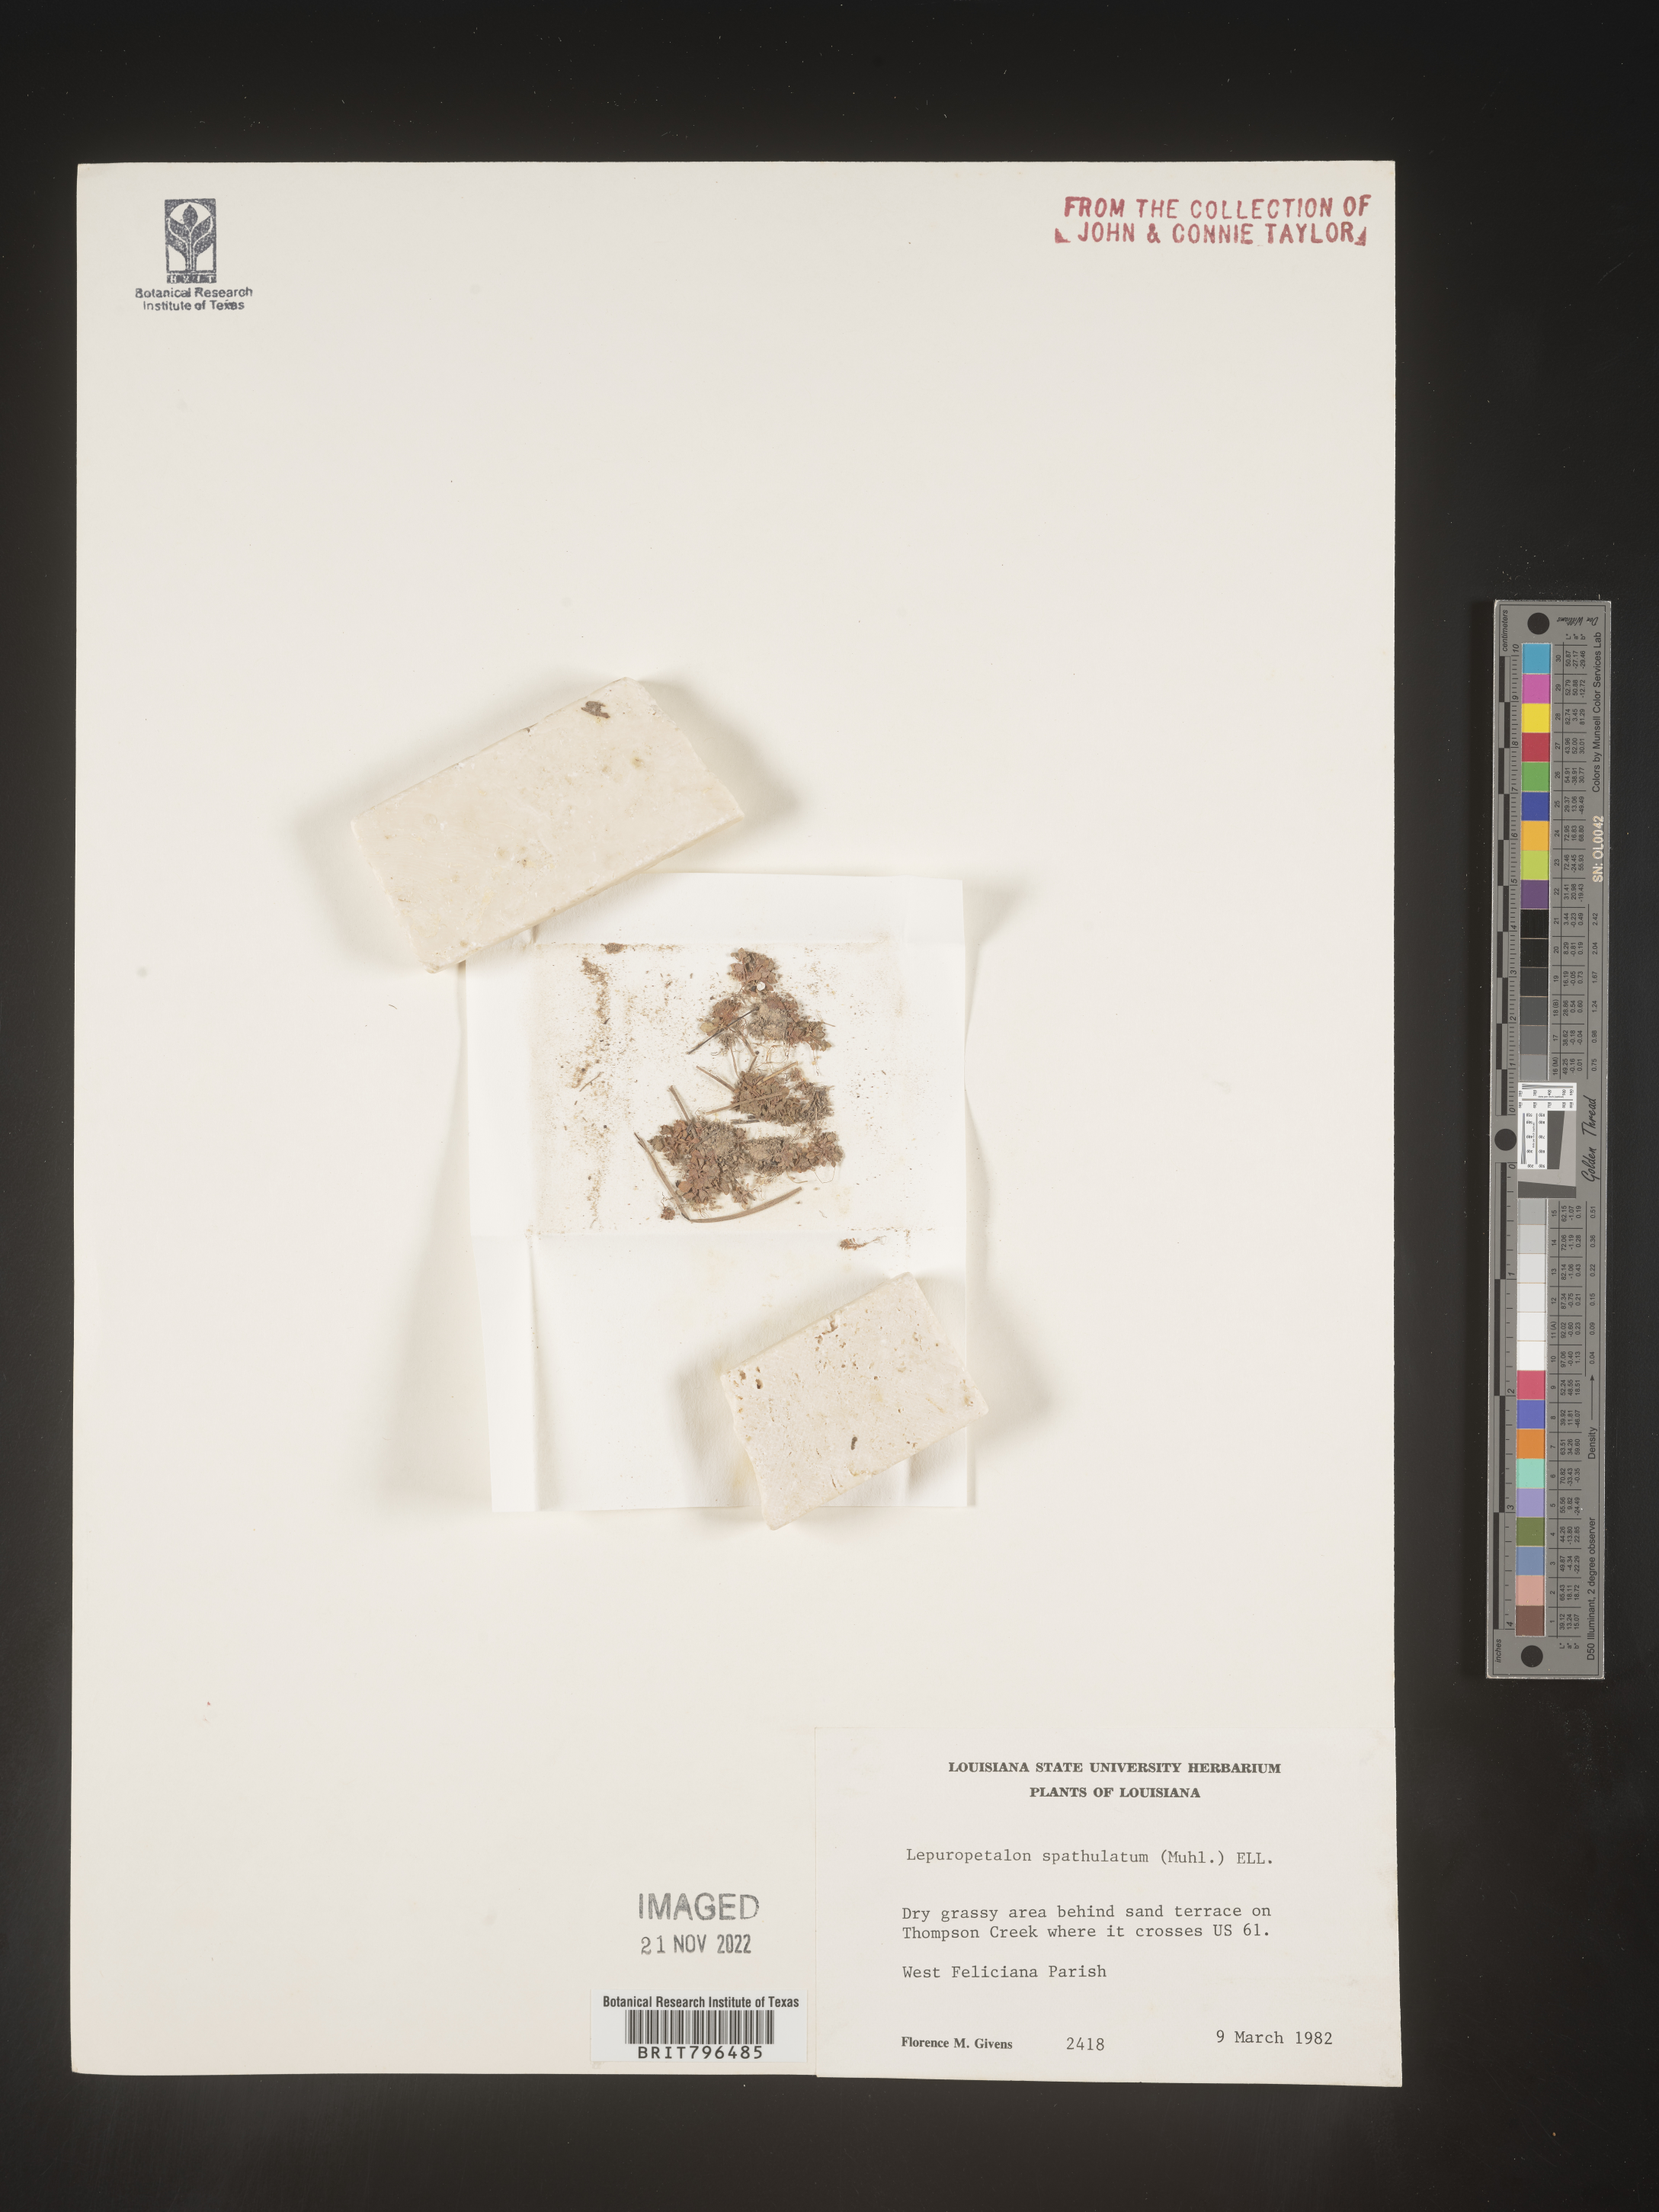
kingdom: Plantae
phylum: Tracheophyta
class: Magnoliopsida
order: Celastrales
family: Parnassiaceae
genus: Lepuropetalon
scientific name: Lepuropetalon
